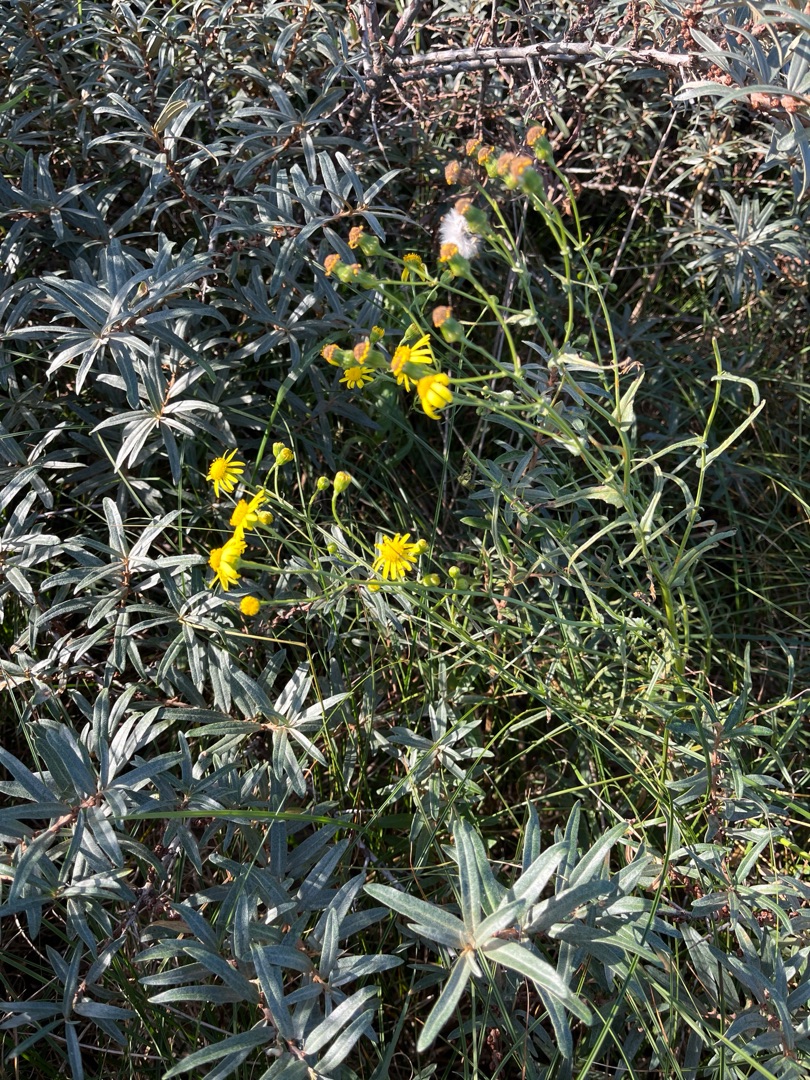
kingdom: Plantae
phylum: Tracheophyta
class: Magnoliopsida
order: Asterales
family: Asteraceae
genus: Senecio
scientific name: Senecio inaequidens
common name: Smalbladet brandbæger
